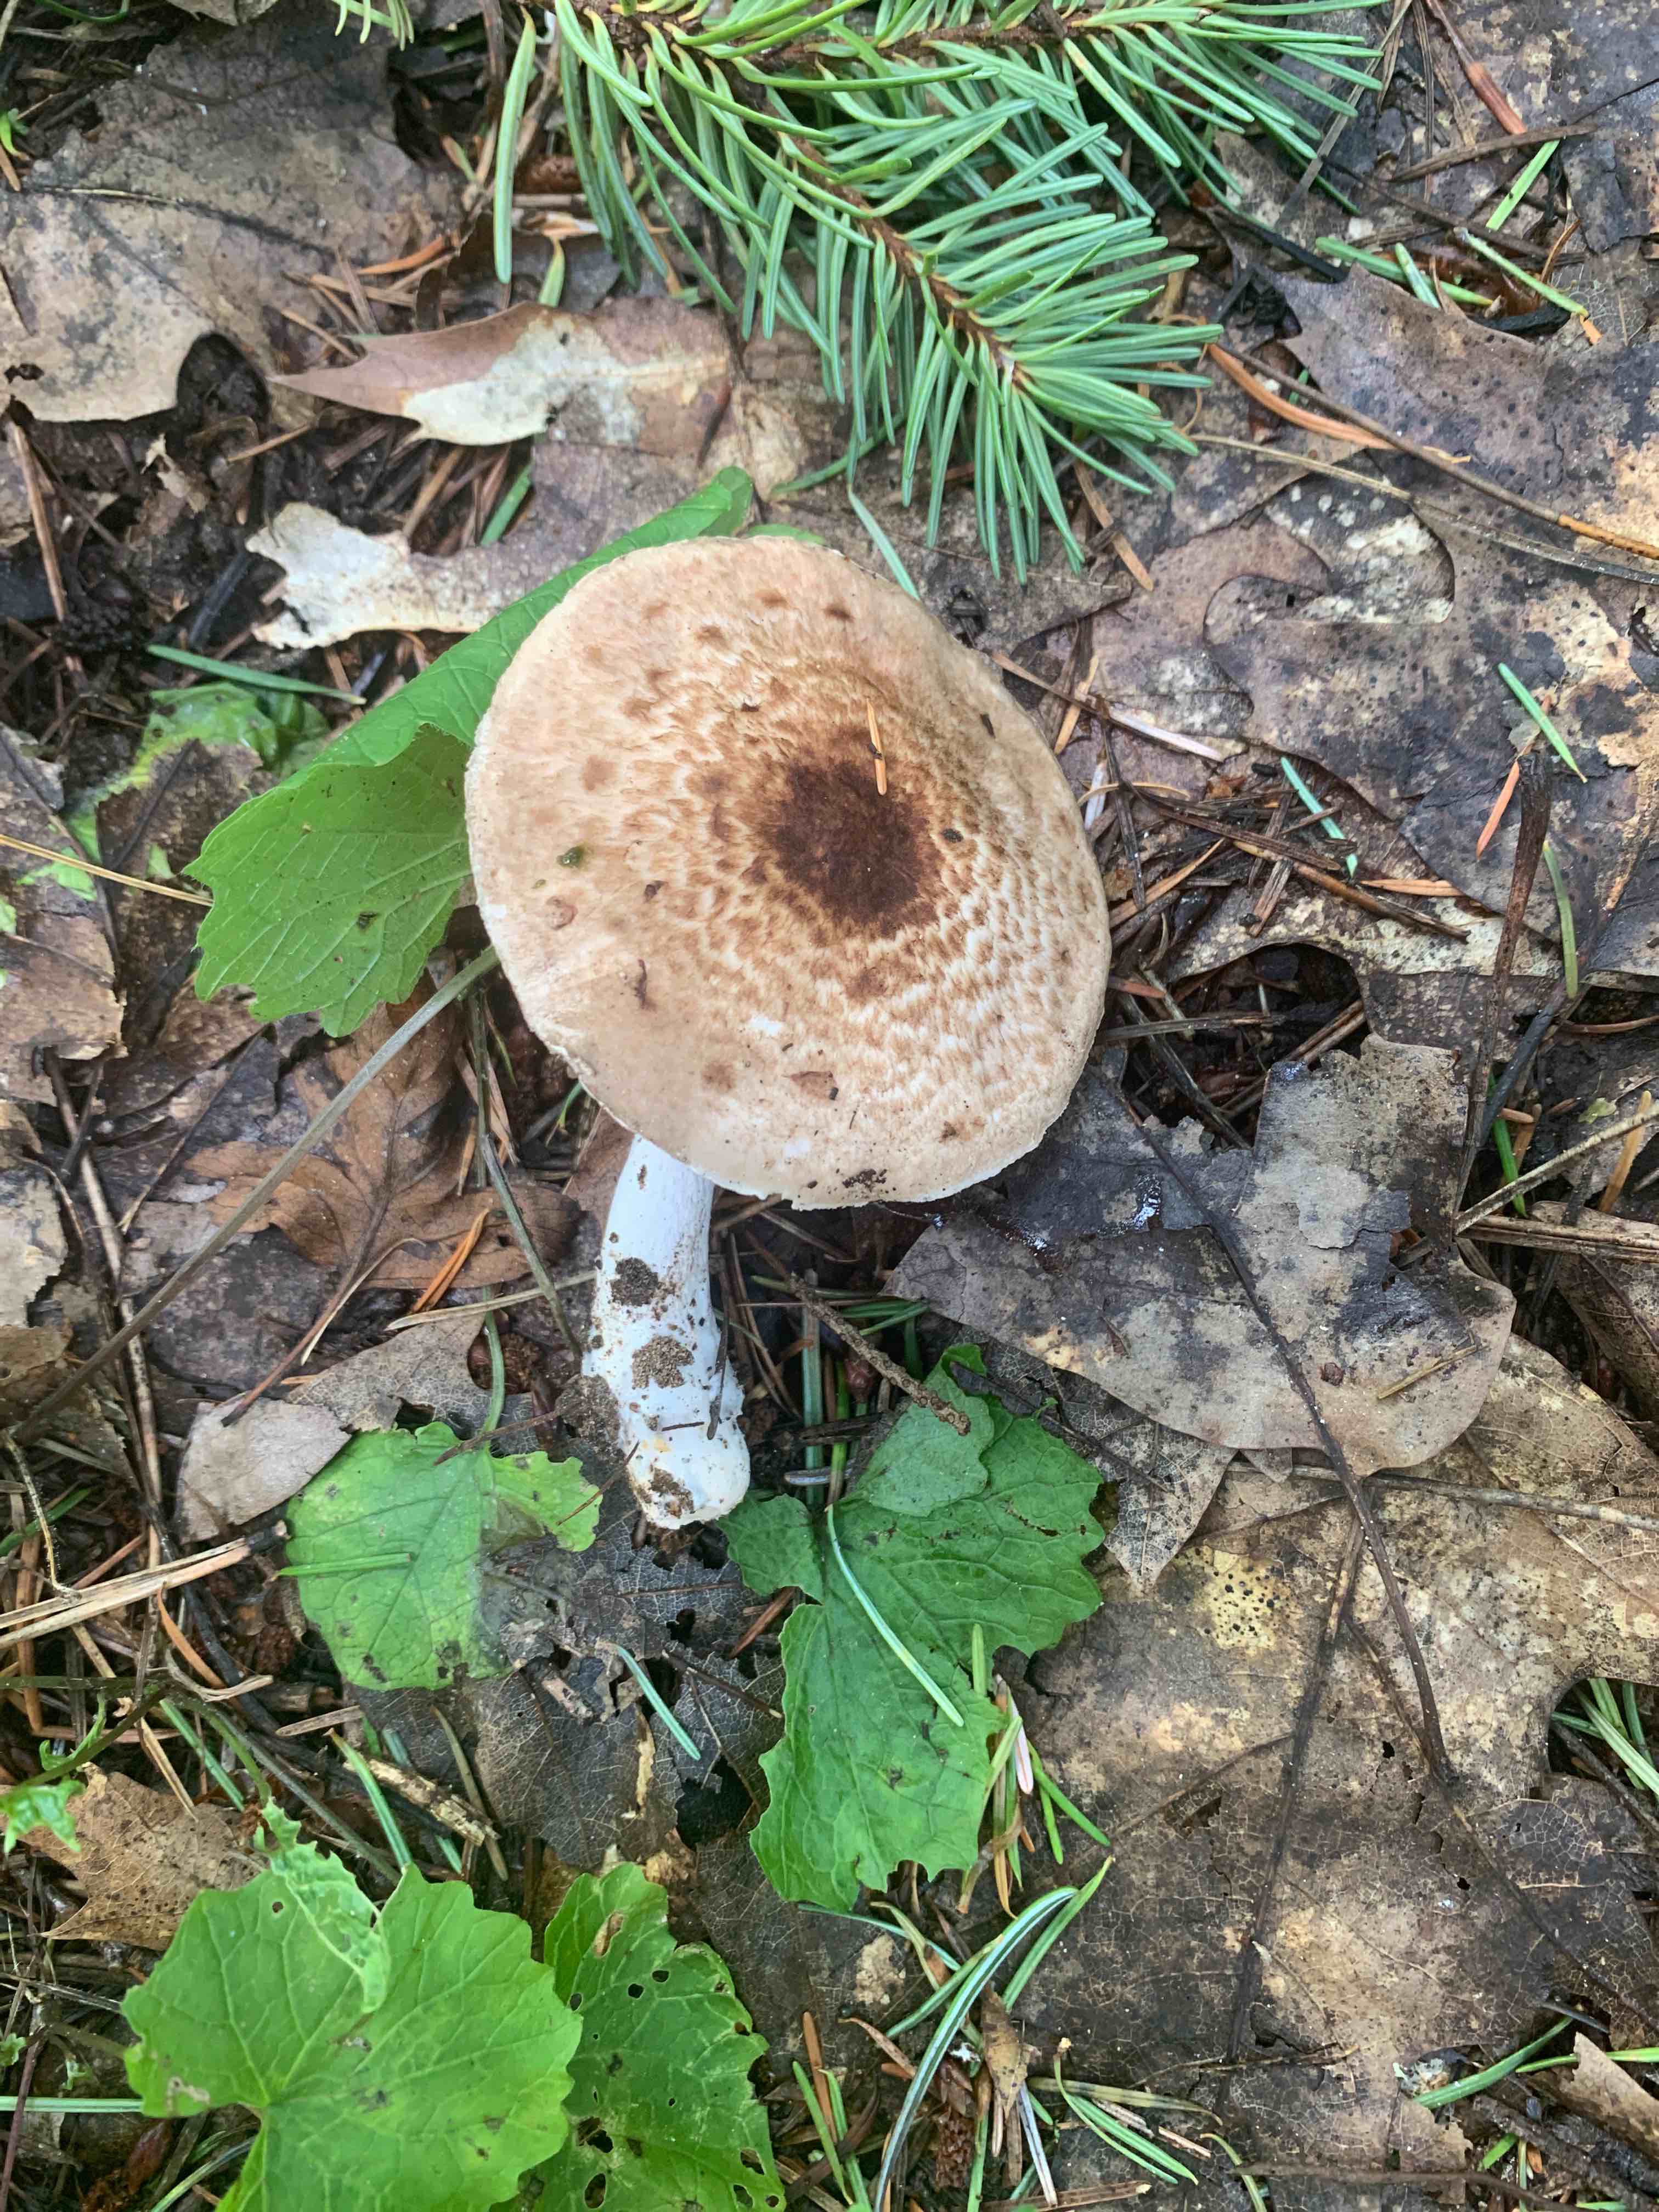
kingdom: Fungi
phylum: Basidiomycota
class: Agaricomycetes
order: Agaricales
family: Agaricaceae
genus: Agaricus
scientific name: Agaricus
